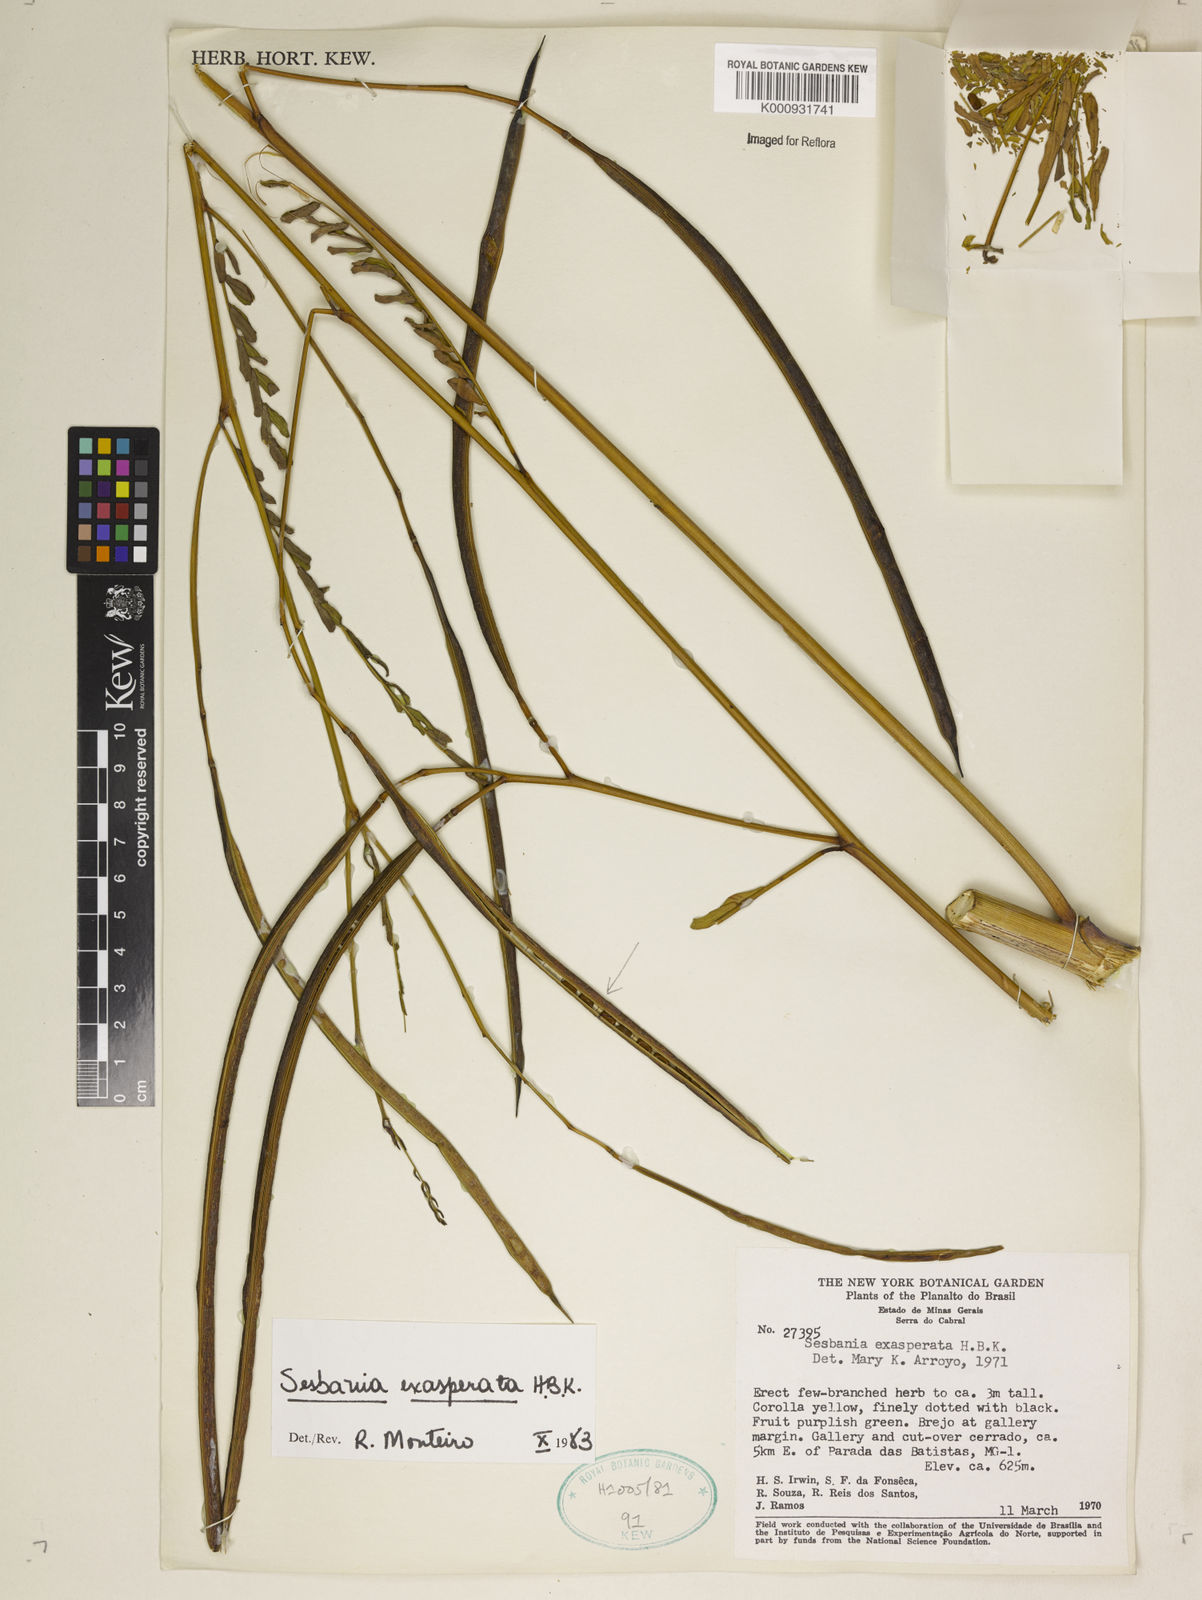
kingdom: Plantae
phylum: Tracheophyta
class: Magnoliopsida
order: Fabales
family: Fabaceae
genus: Sesbania
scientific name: Sesbania exasperata
